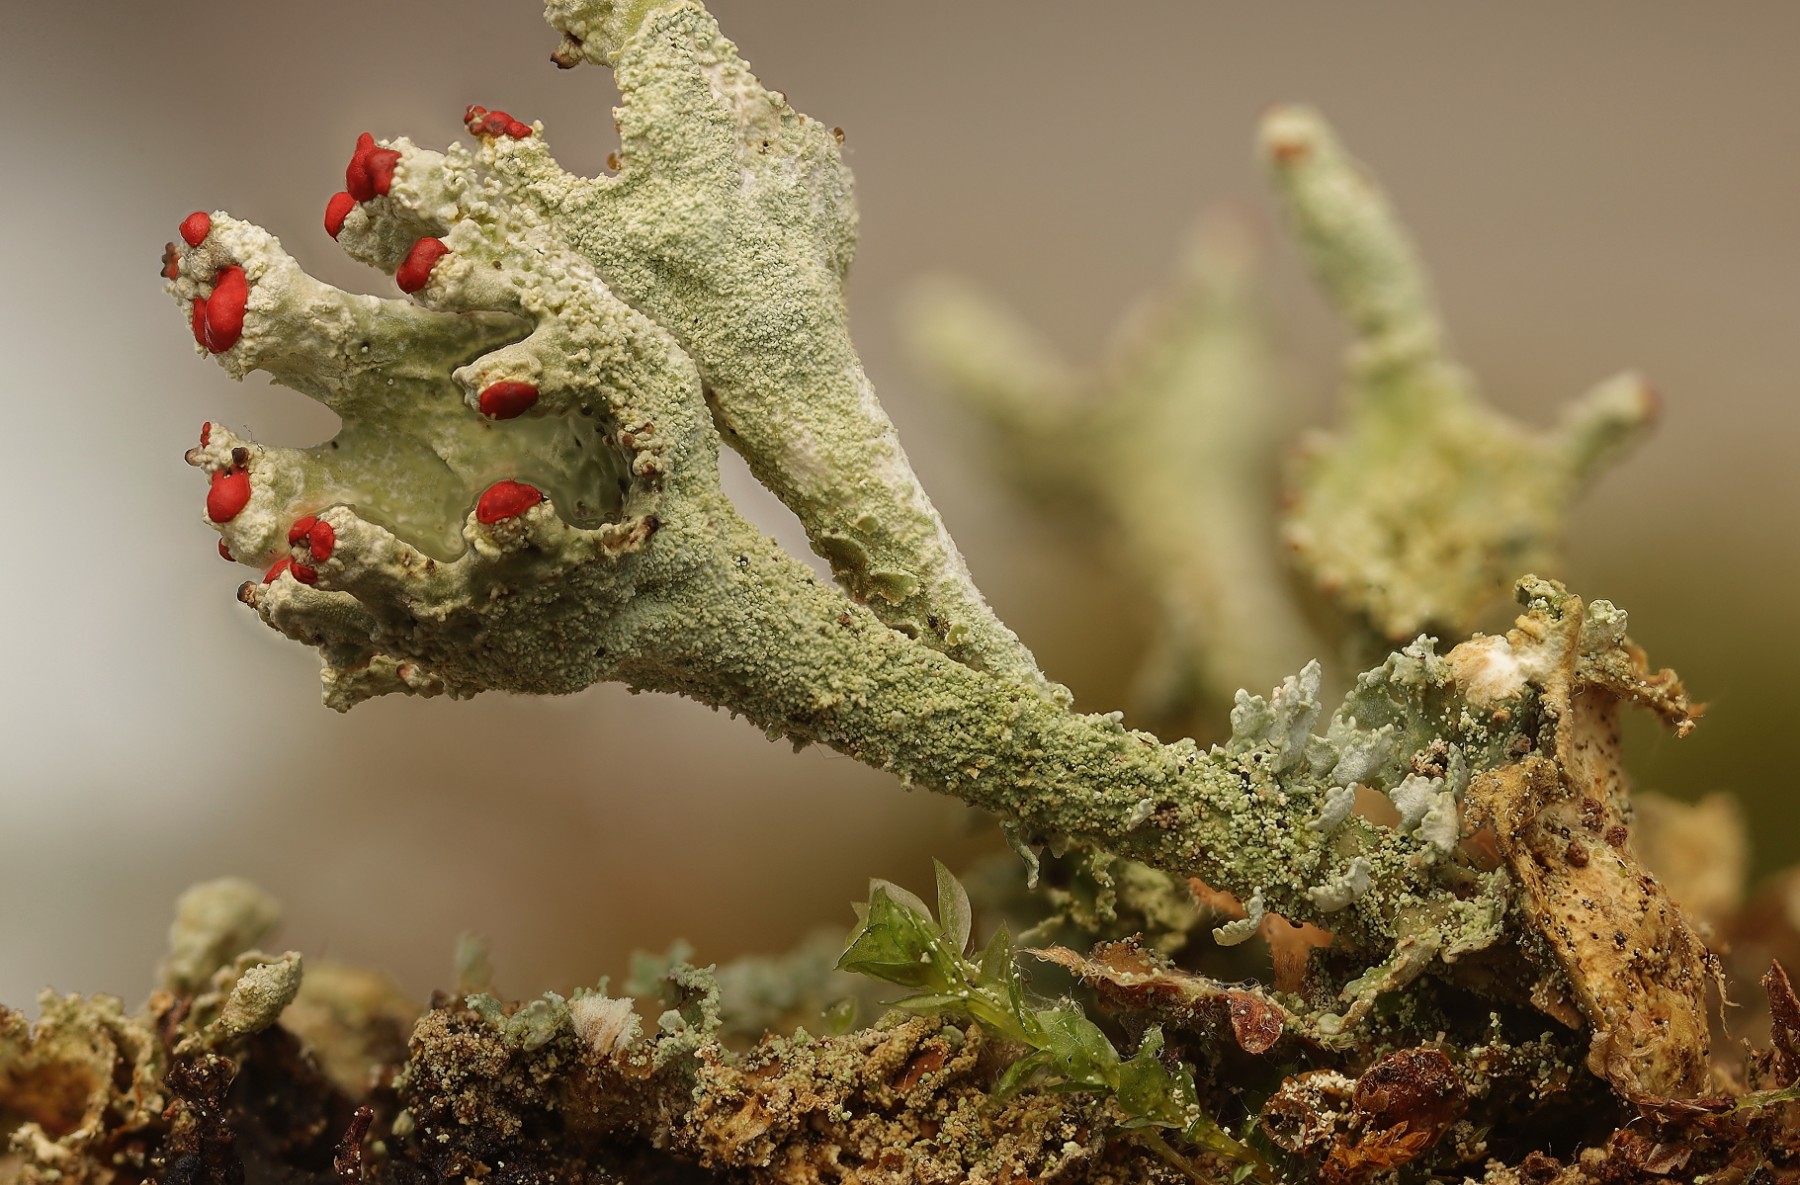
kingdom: Fungi
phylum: Ascomycota
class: Lecanoromycetes
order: Lecanorales
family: Cladoniaceae
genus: Cladonia
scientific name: Cladonia diversa
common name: rød bægerlav
